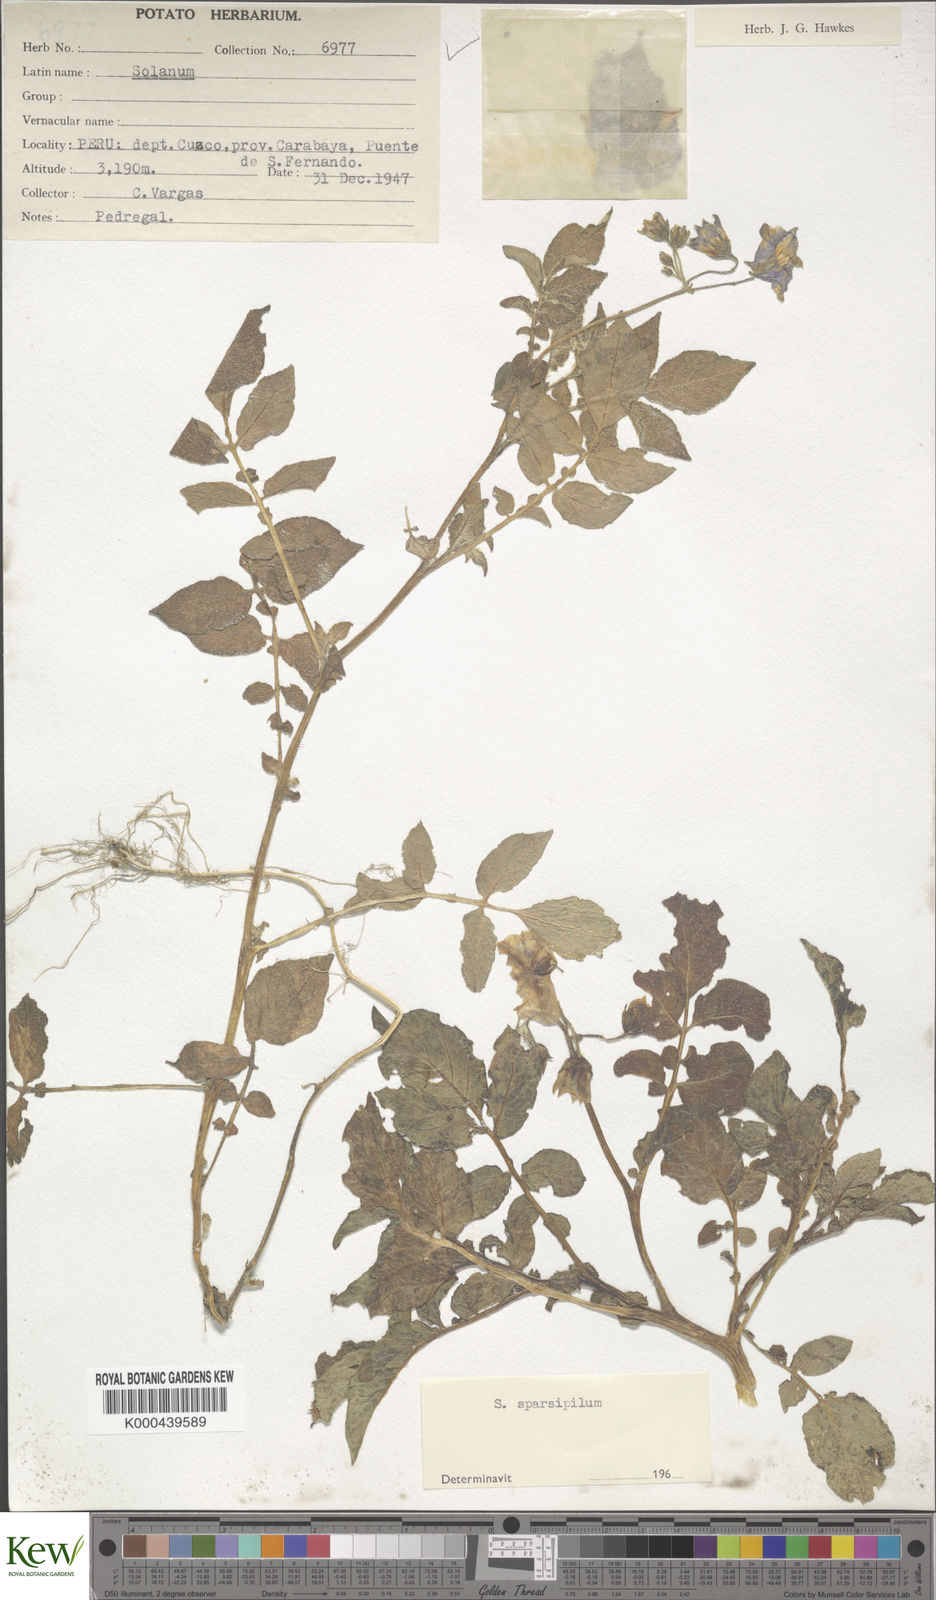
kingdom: Plantae
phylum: Tracheophyta
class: Magnoliopsida
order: Solanales
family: Solanaceae
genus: Solanum
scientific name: Solanum candolleanum
